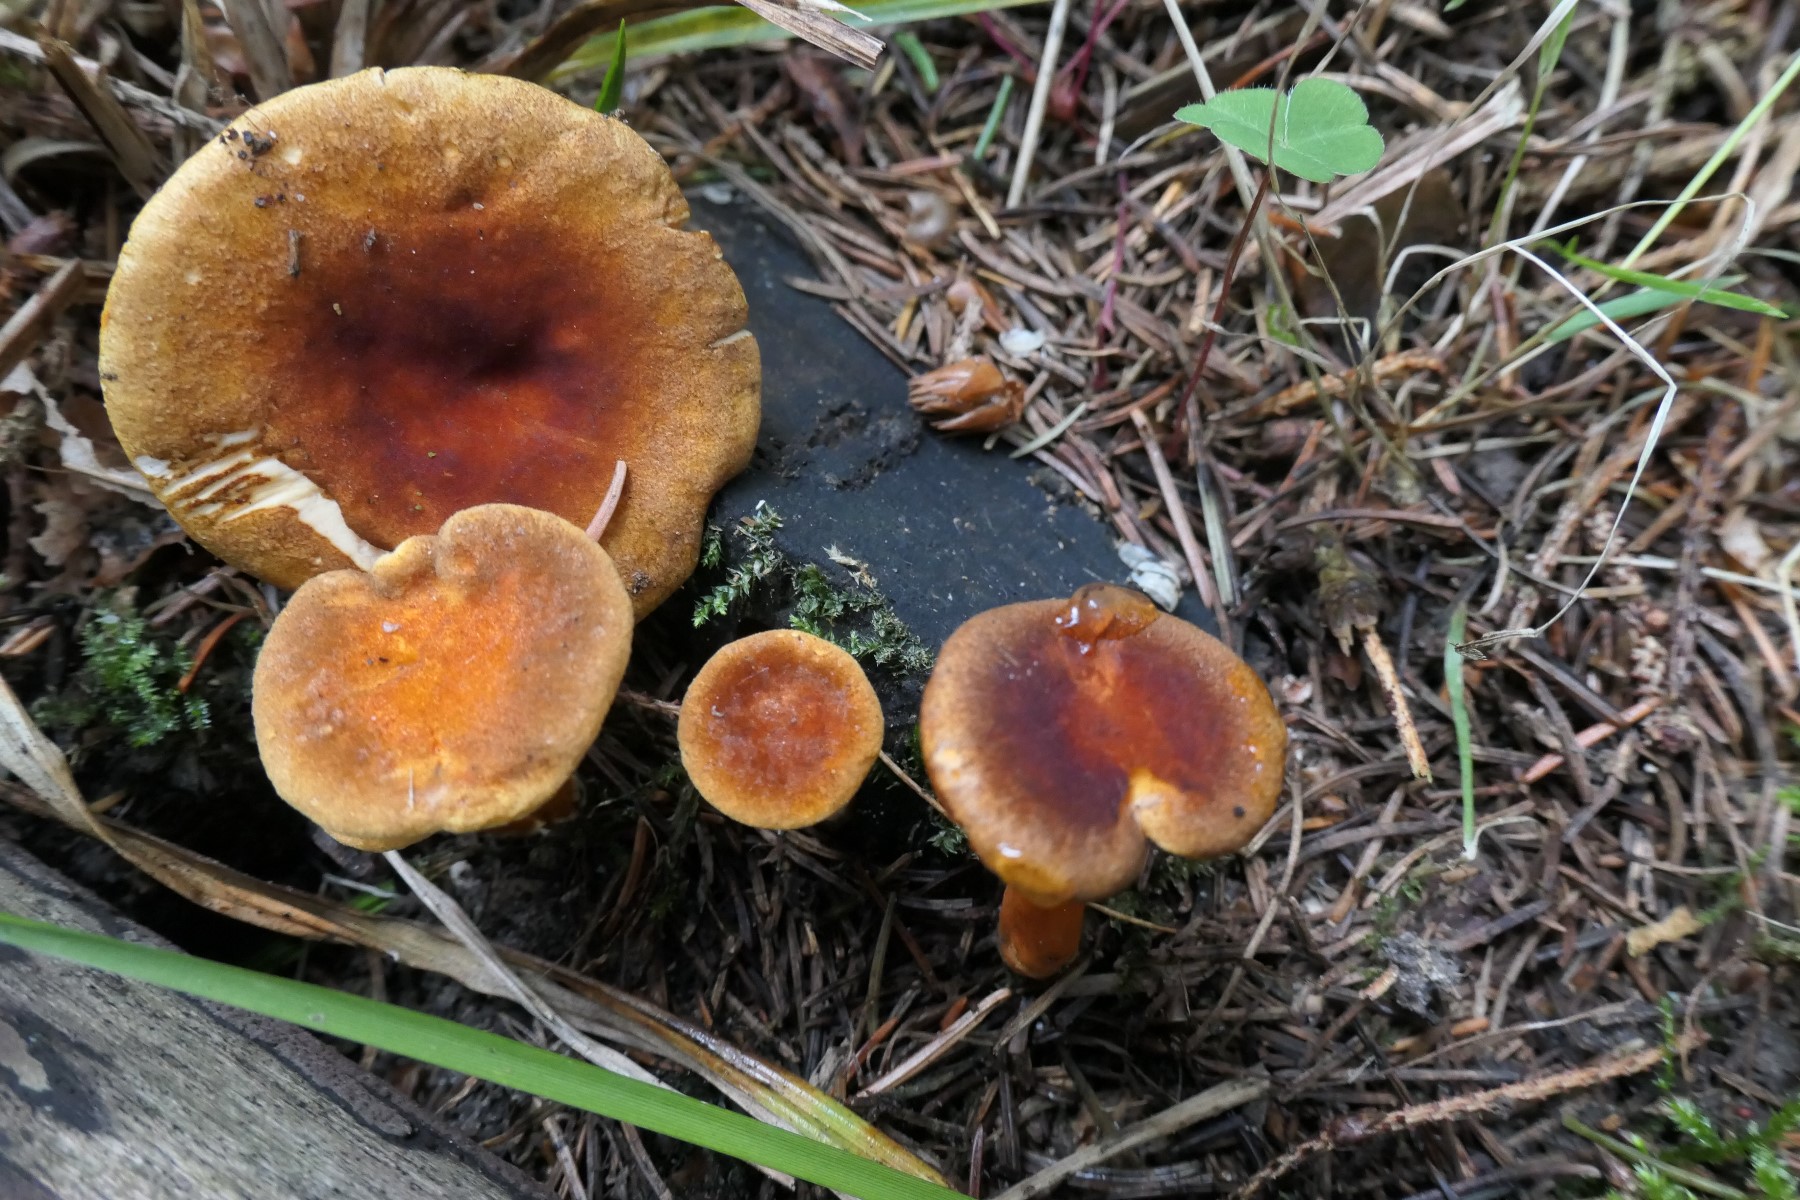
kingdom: Fungi
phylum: Basidiomycota
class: Agaricomycetes
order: Boletales
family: Hygrophoropsidaceae
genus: Hygrophoropsis
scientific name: Hygrophoropsis rufa
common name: brunfiltet orangekantarel
